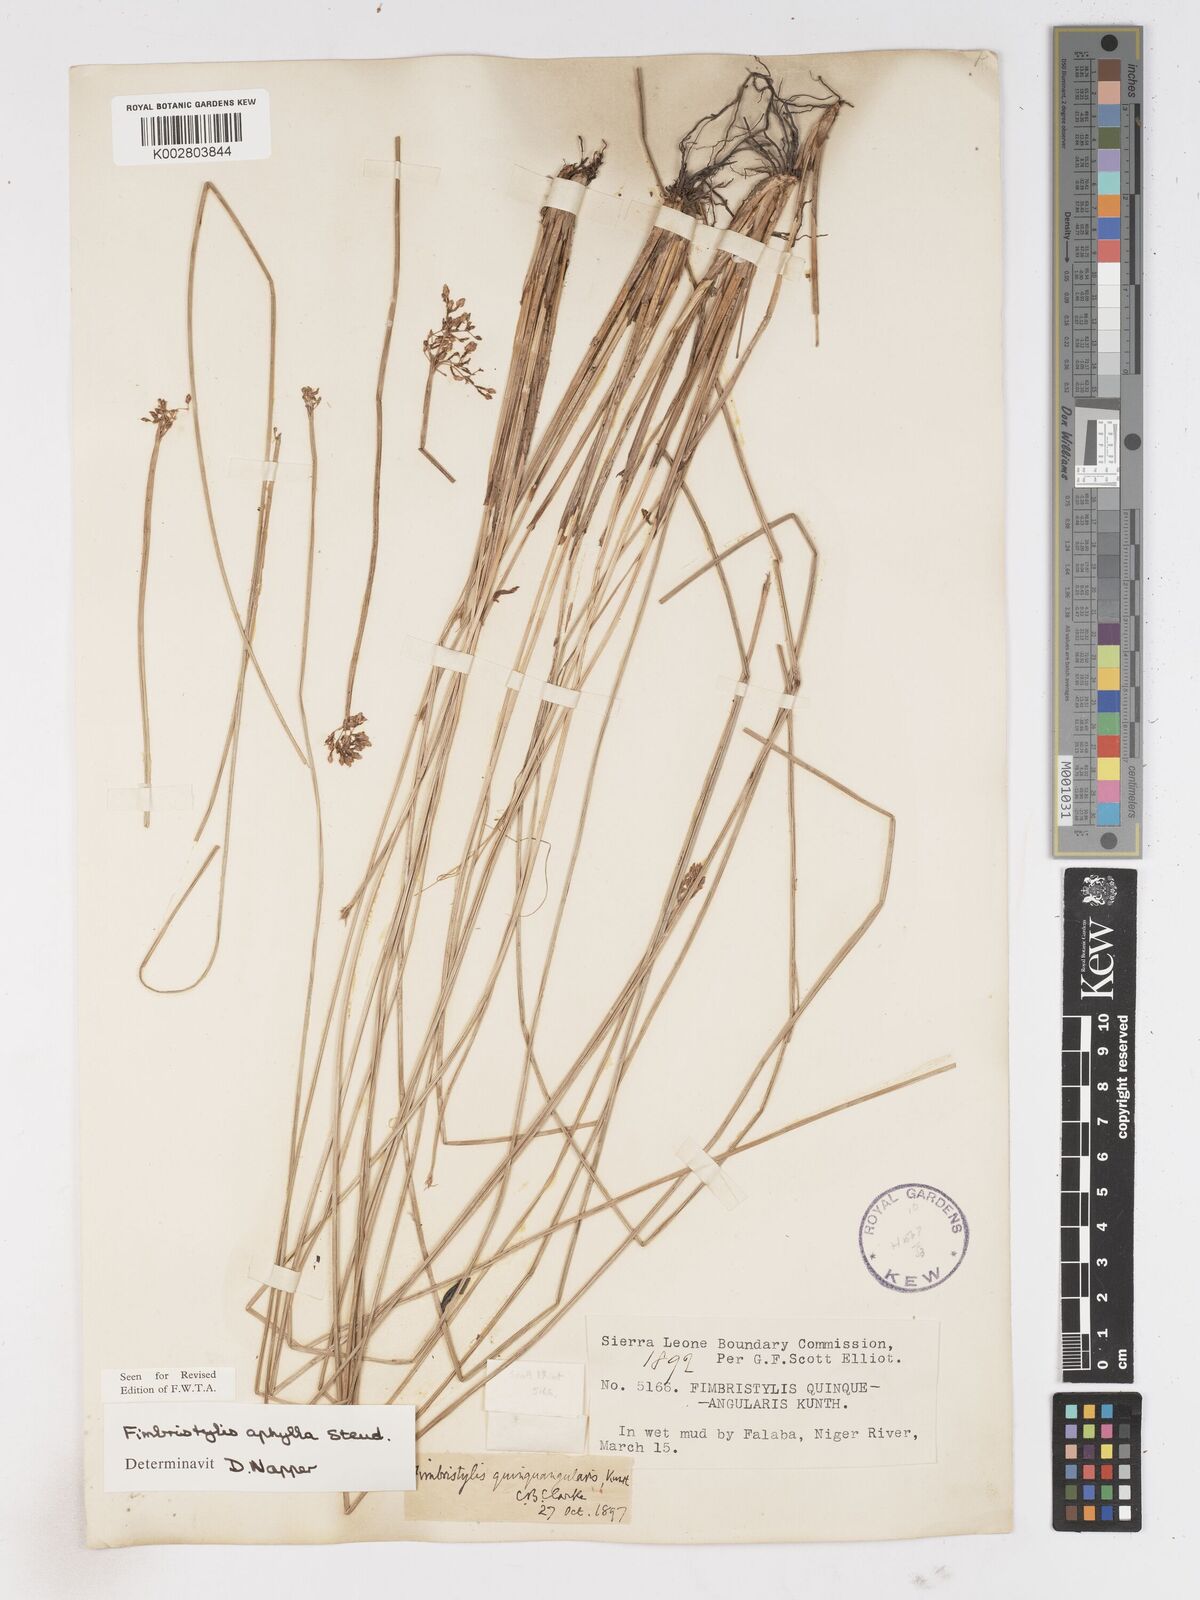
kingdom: Plantae
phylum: Tracheophyta
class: Liliopsida
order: Poales
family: Cyperaceae
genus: Fimbristylis
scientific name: Fimbristylis aphylla
